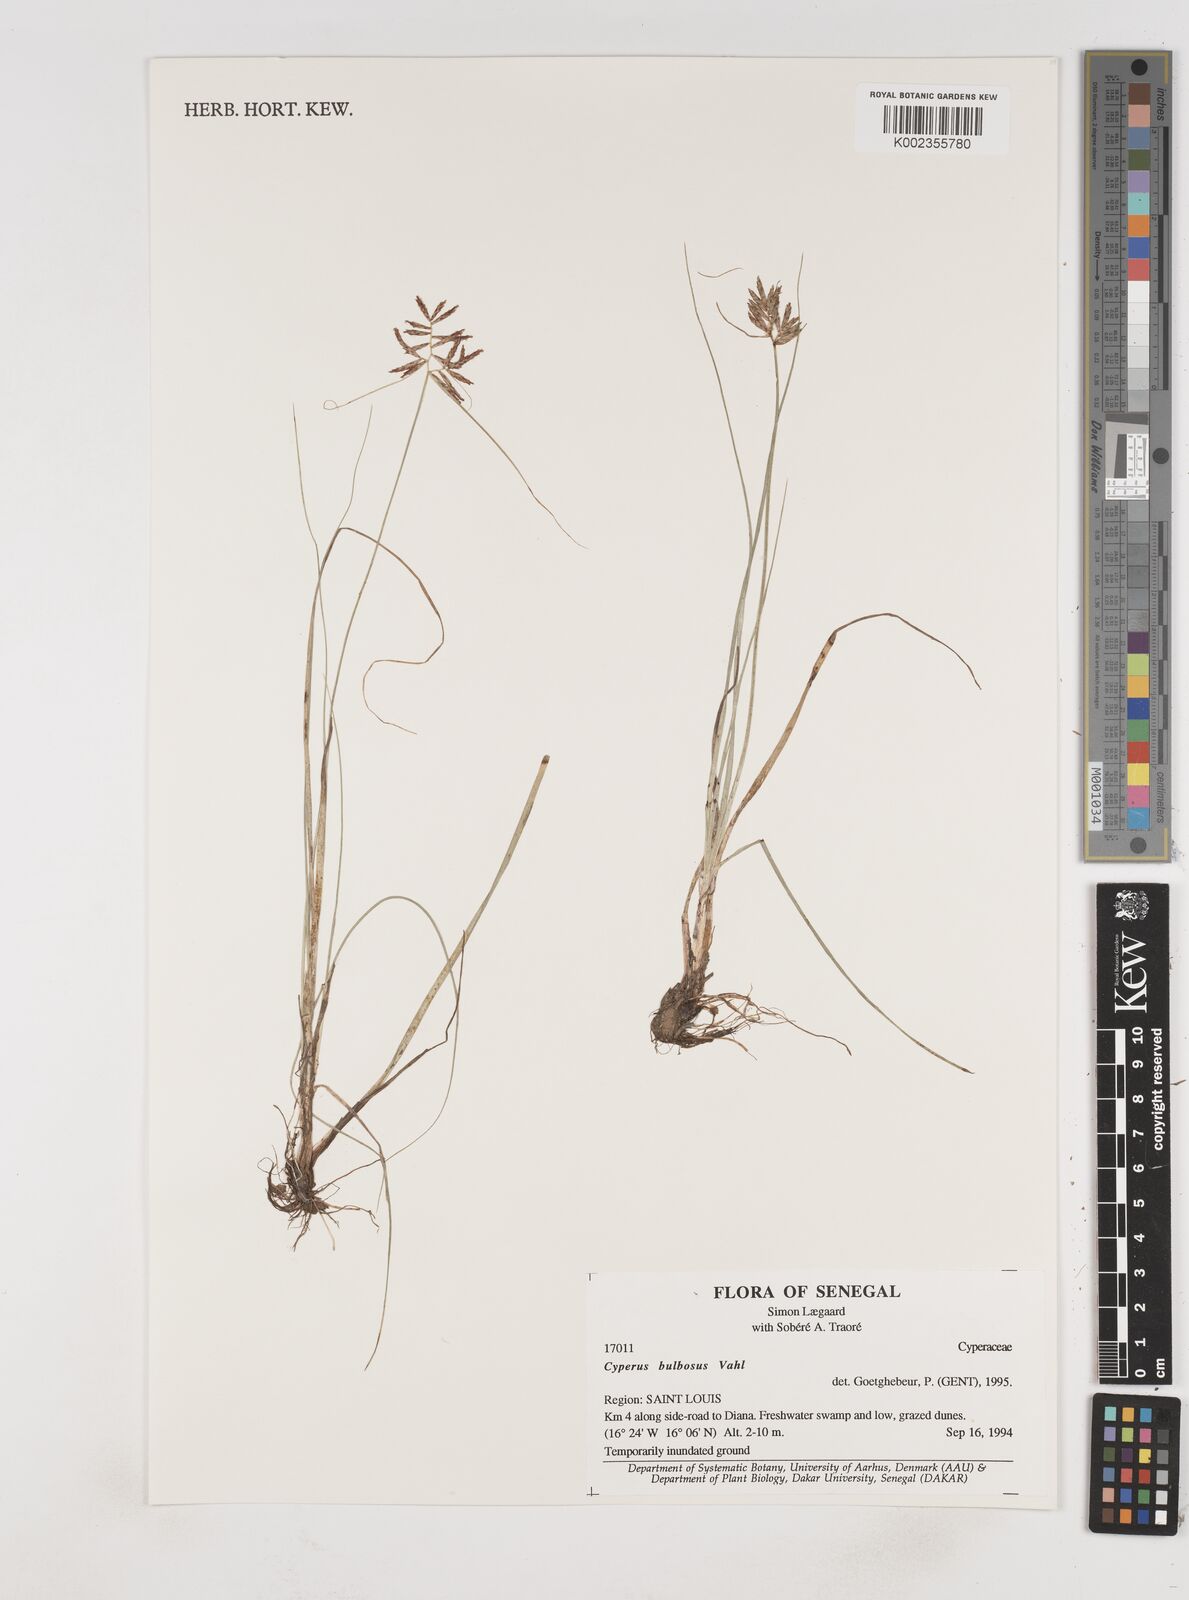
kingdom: Plantae
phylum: Tracheophyta
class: Liliopsida
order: Poales
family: Cyperaceae
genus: Cyperus
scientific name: Cyperus bulbosus
